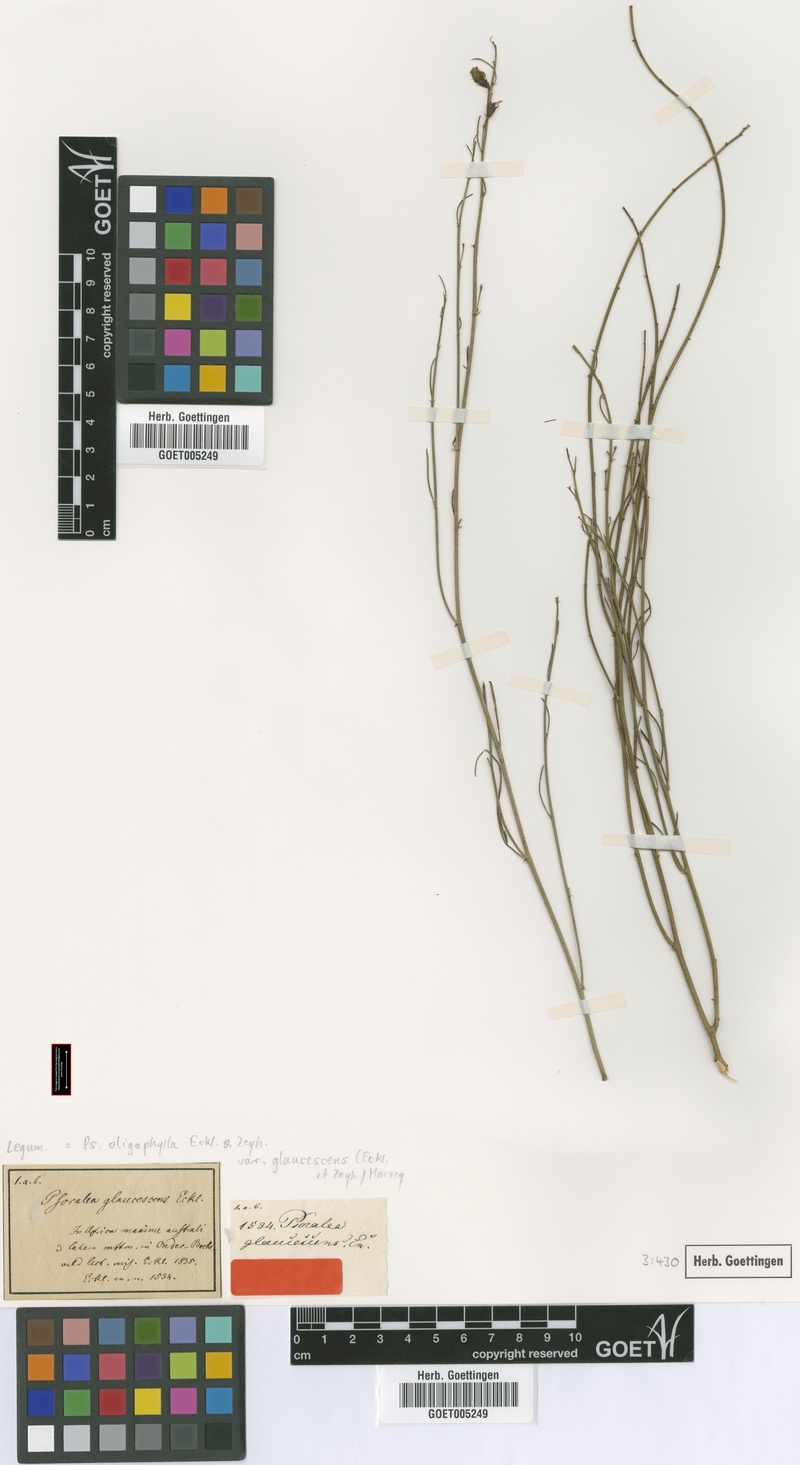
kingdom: Plantae
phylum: Tracheophyta
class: Magnoliopsida
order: Fabales
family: Fabaceae
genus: Psoralea
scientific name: Psoralea glaucescens
